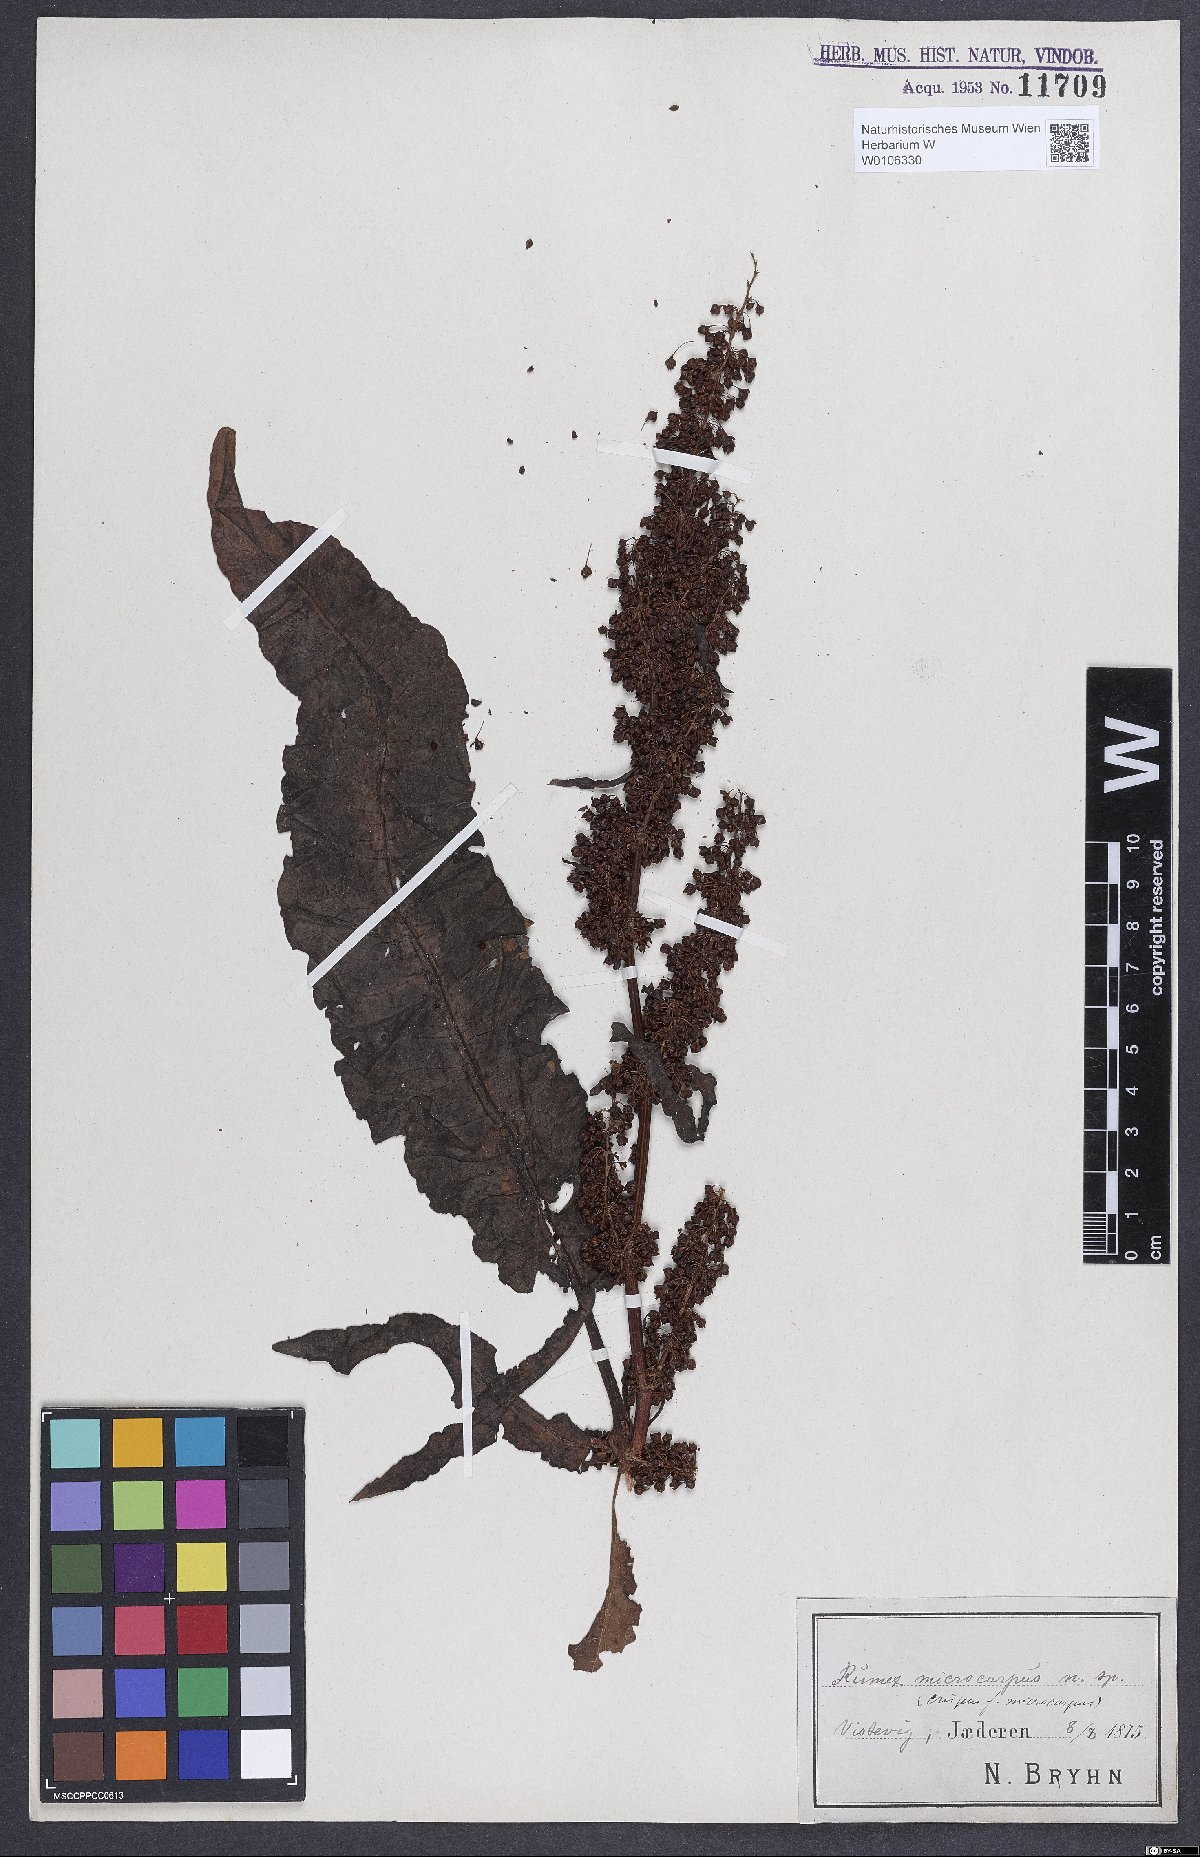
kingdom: Plantae
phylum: Tracheophyta
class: Magnoliopsida
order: Caryophyllales
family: Polygonaceae
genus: Rumex
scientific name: Rumex crispus
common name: Curled dock
